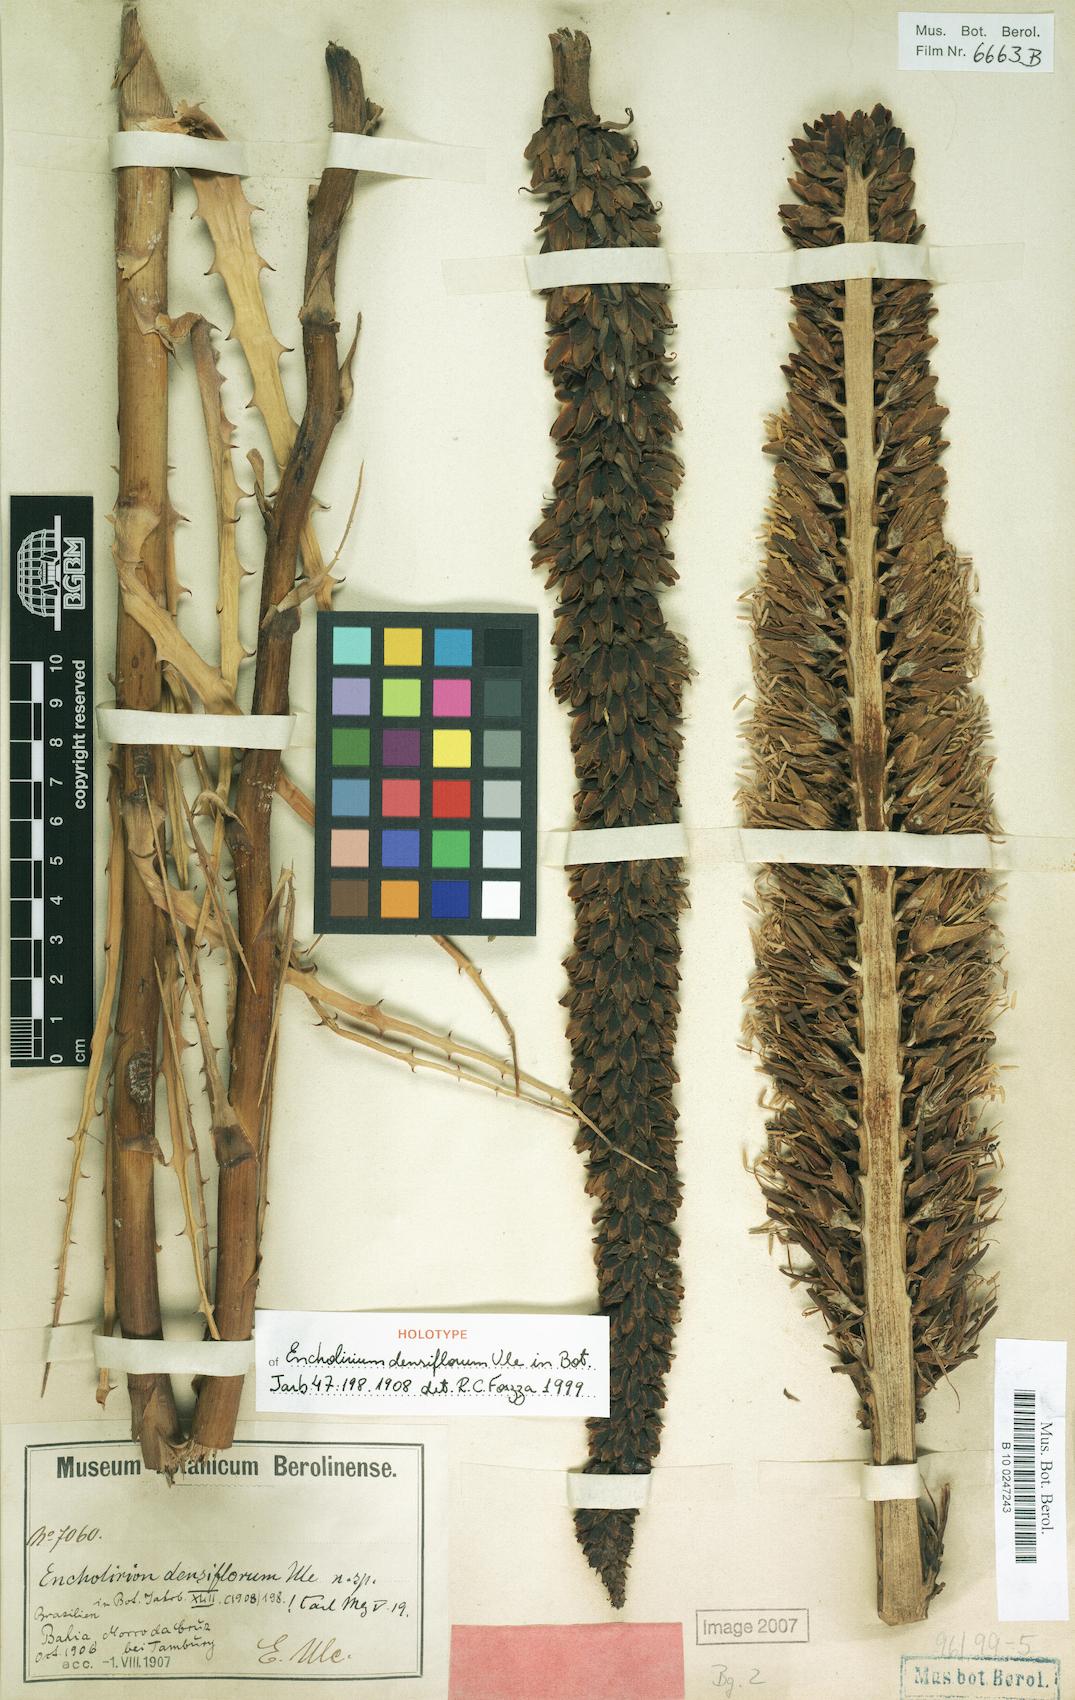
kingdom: Plantae
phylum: Tracheophyta
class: Liliopsida
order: Poales
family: Bromeliaceae
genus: Encholirium
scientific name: Encholirium spectabile
